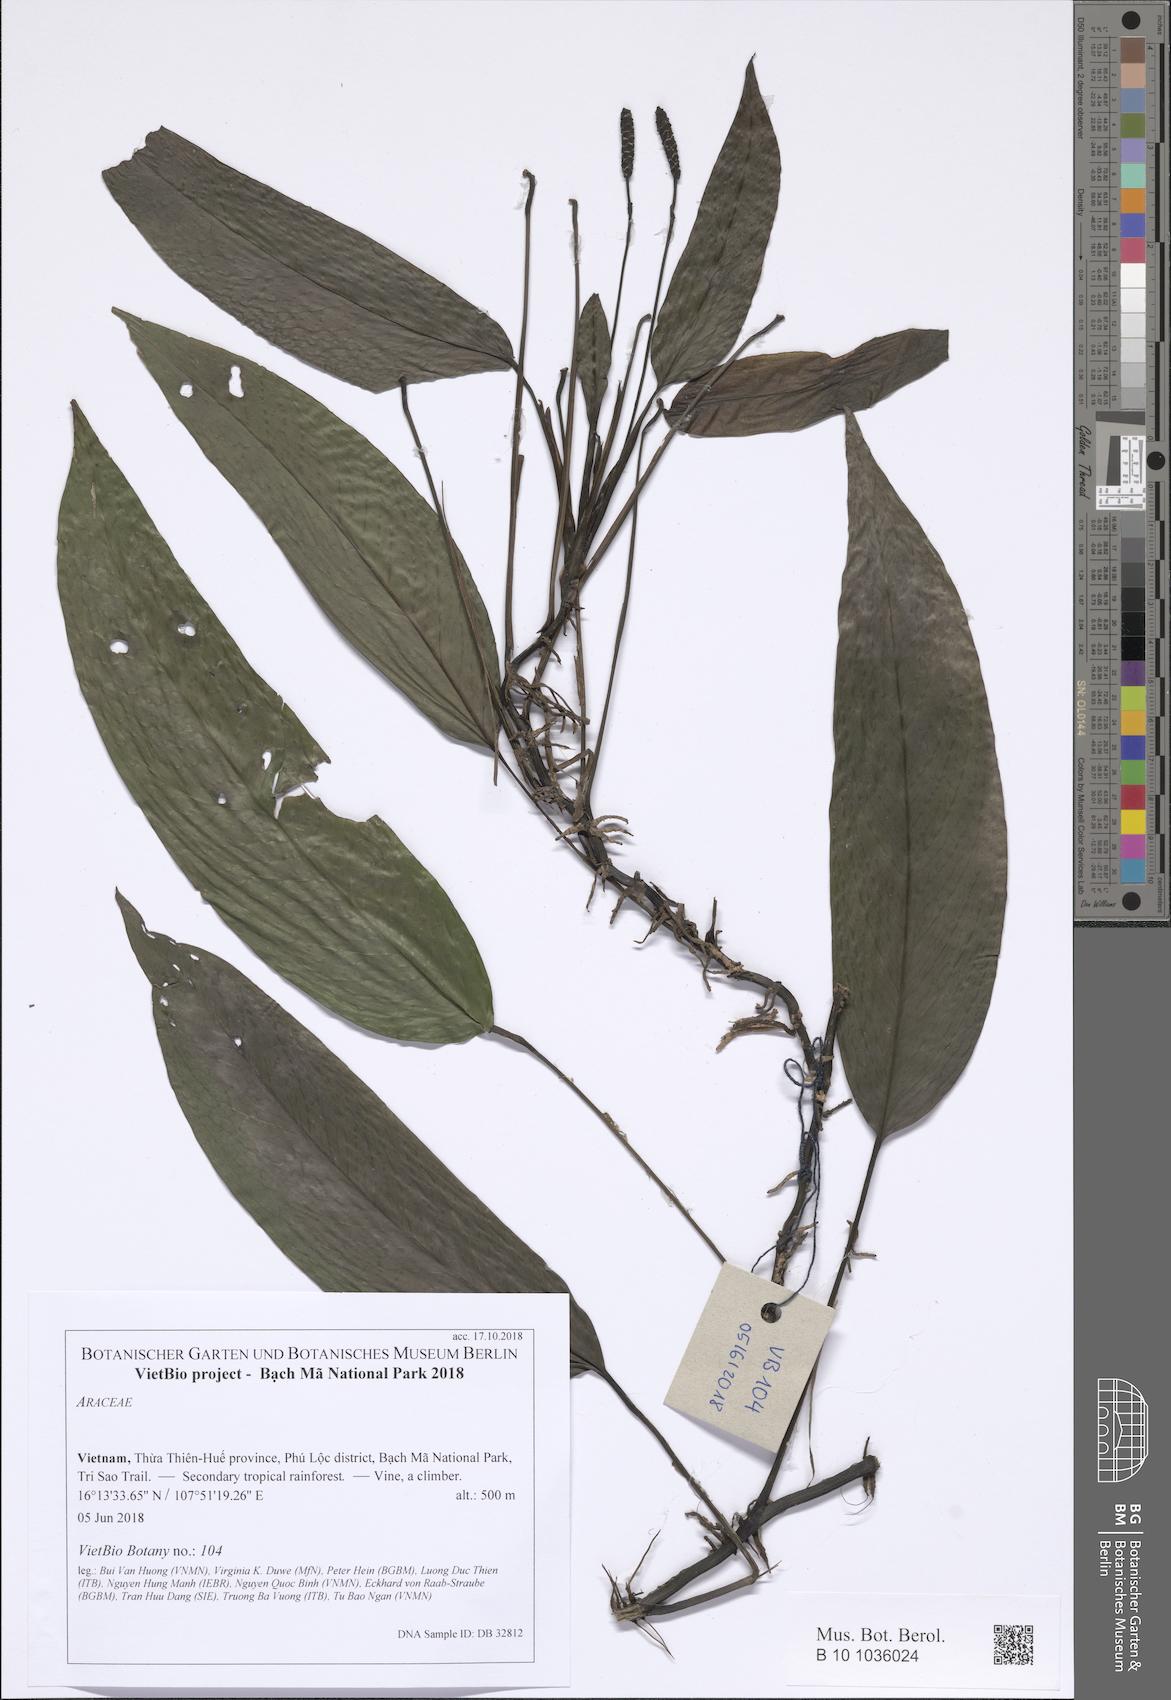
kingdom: Plantae
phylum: Tracheophyta
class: Liliopsida
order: Alismatales
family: Araceae
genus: Anadendrum
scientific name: Anadendrum
